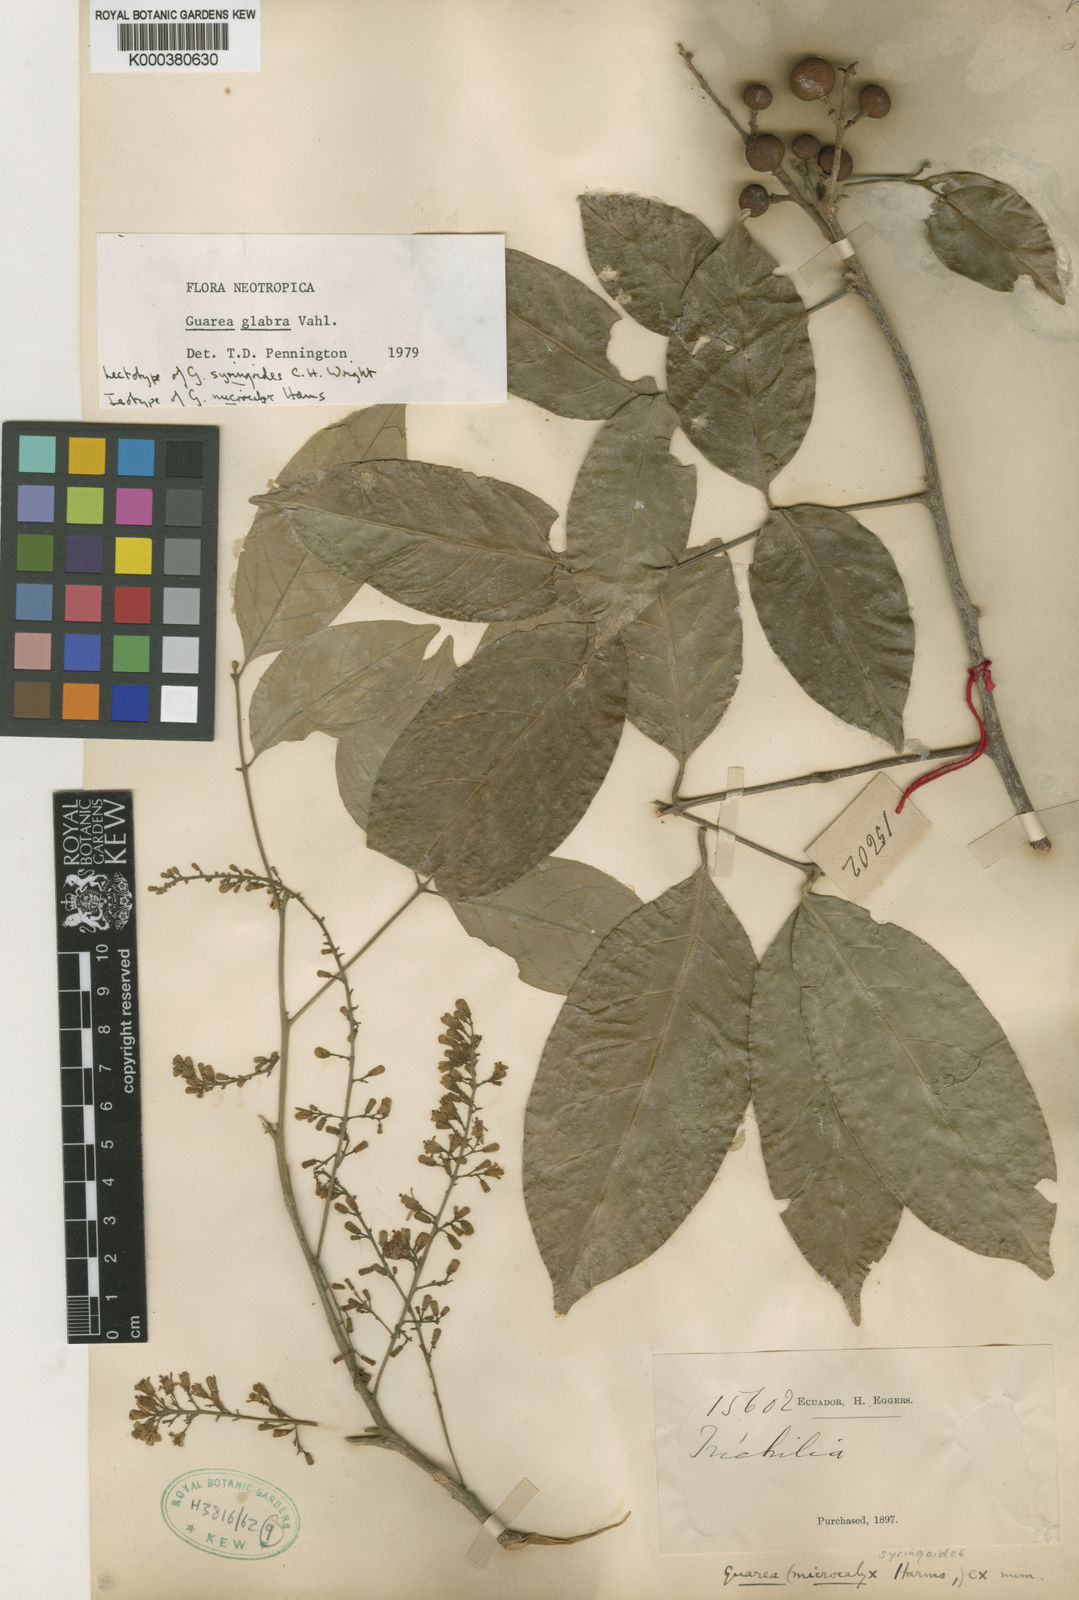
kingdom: Plantae
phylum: Tracheophyta
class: Magnoliopsida
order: Sapindales
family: Meliaceae
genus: Guarea
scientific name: Guarea glabra
